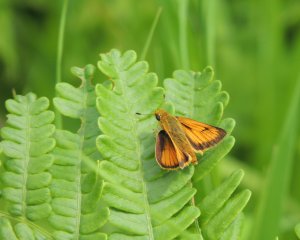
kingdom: Animalia
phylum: Arthropoda
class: Insecta
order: Lepidoptera
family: Hesperiidae
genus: Atrytone
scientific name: Atrytone delaware
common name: Delaware Skipper
